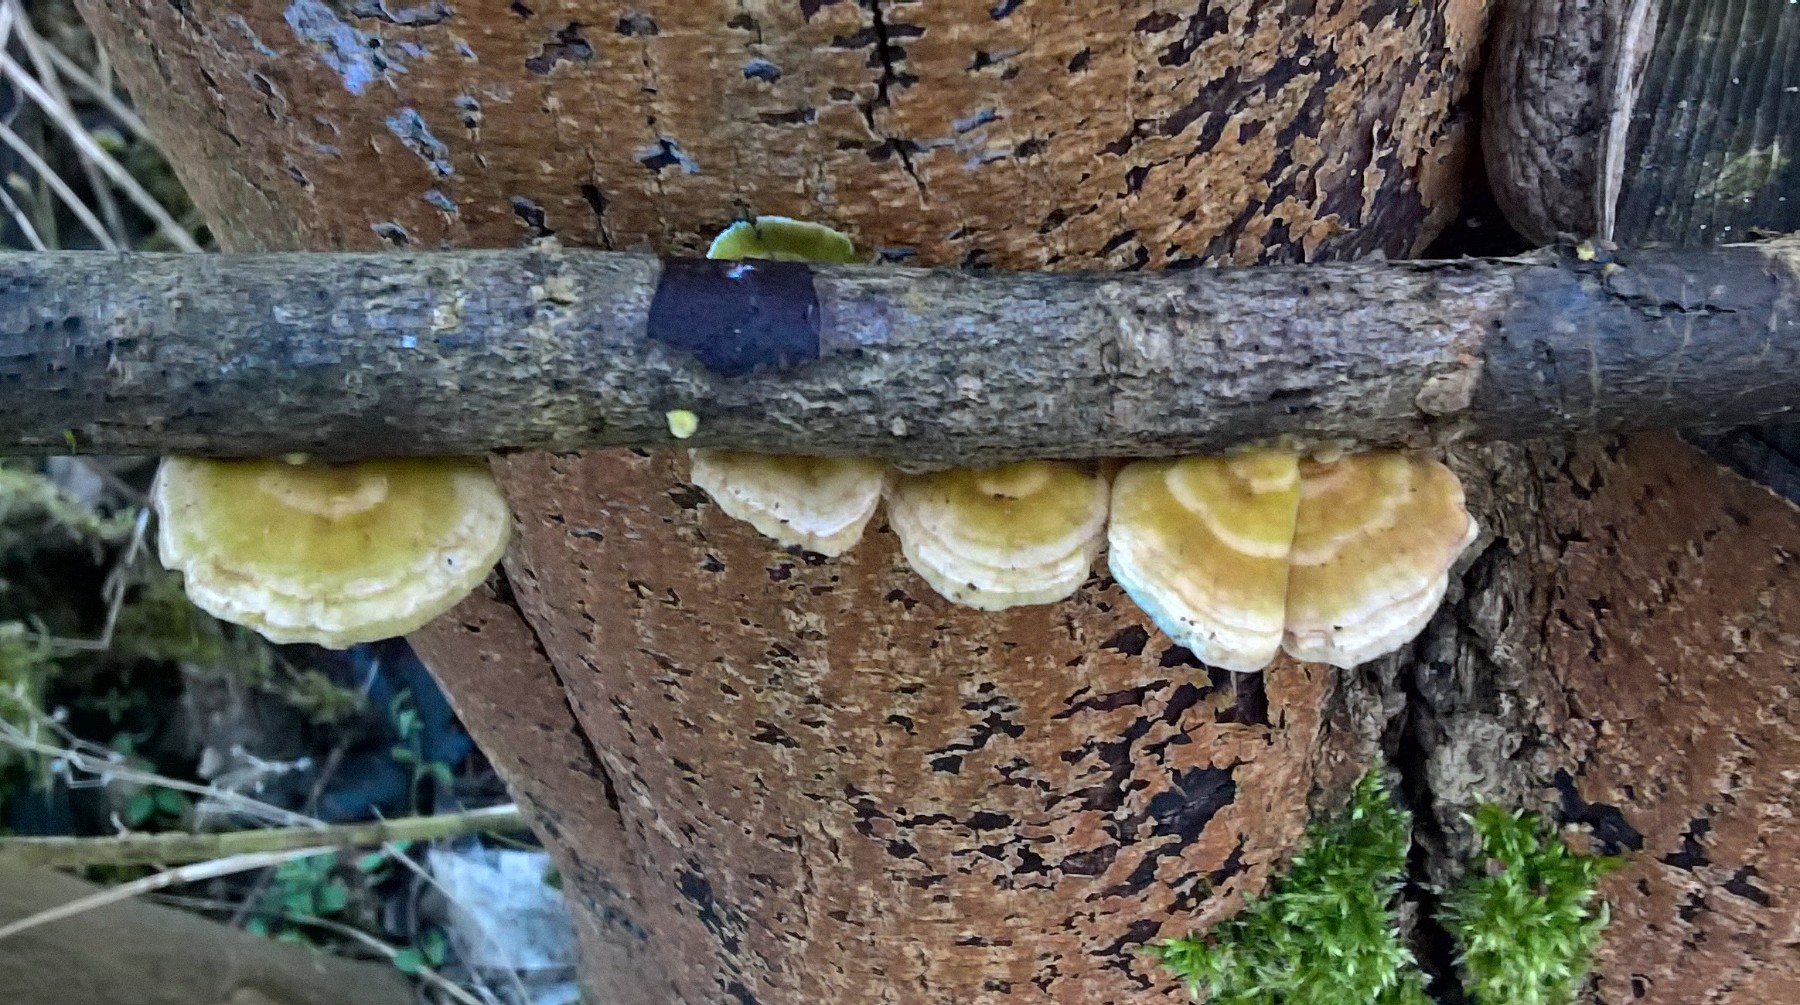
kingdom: Fungi
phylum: Basidiomycota
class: Agaricomycetes
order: Polyporales
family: Polyporaceae
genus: Trametes
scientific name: Trametes hirsuta
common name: håret læderporesvamp
